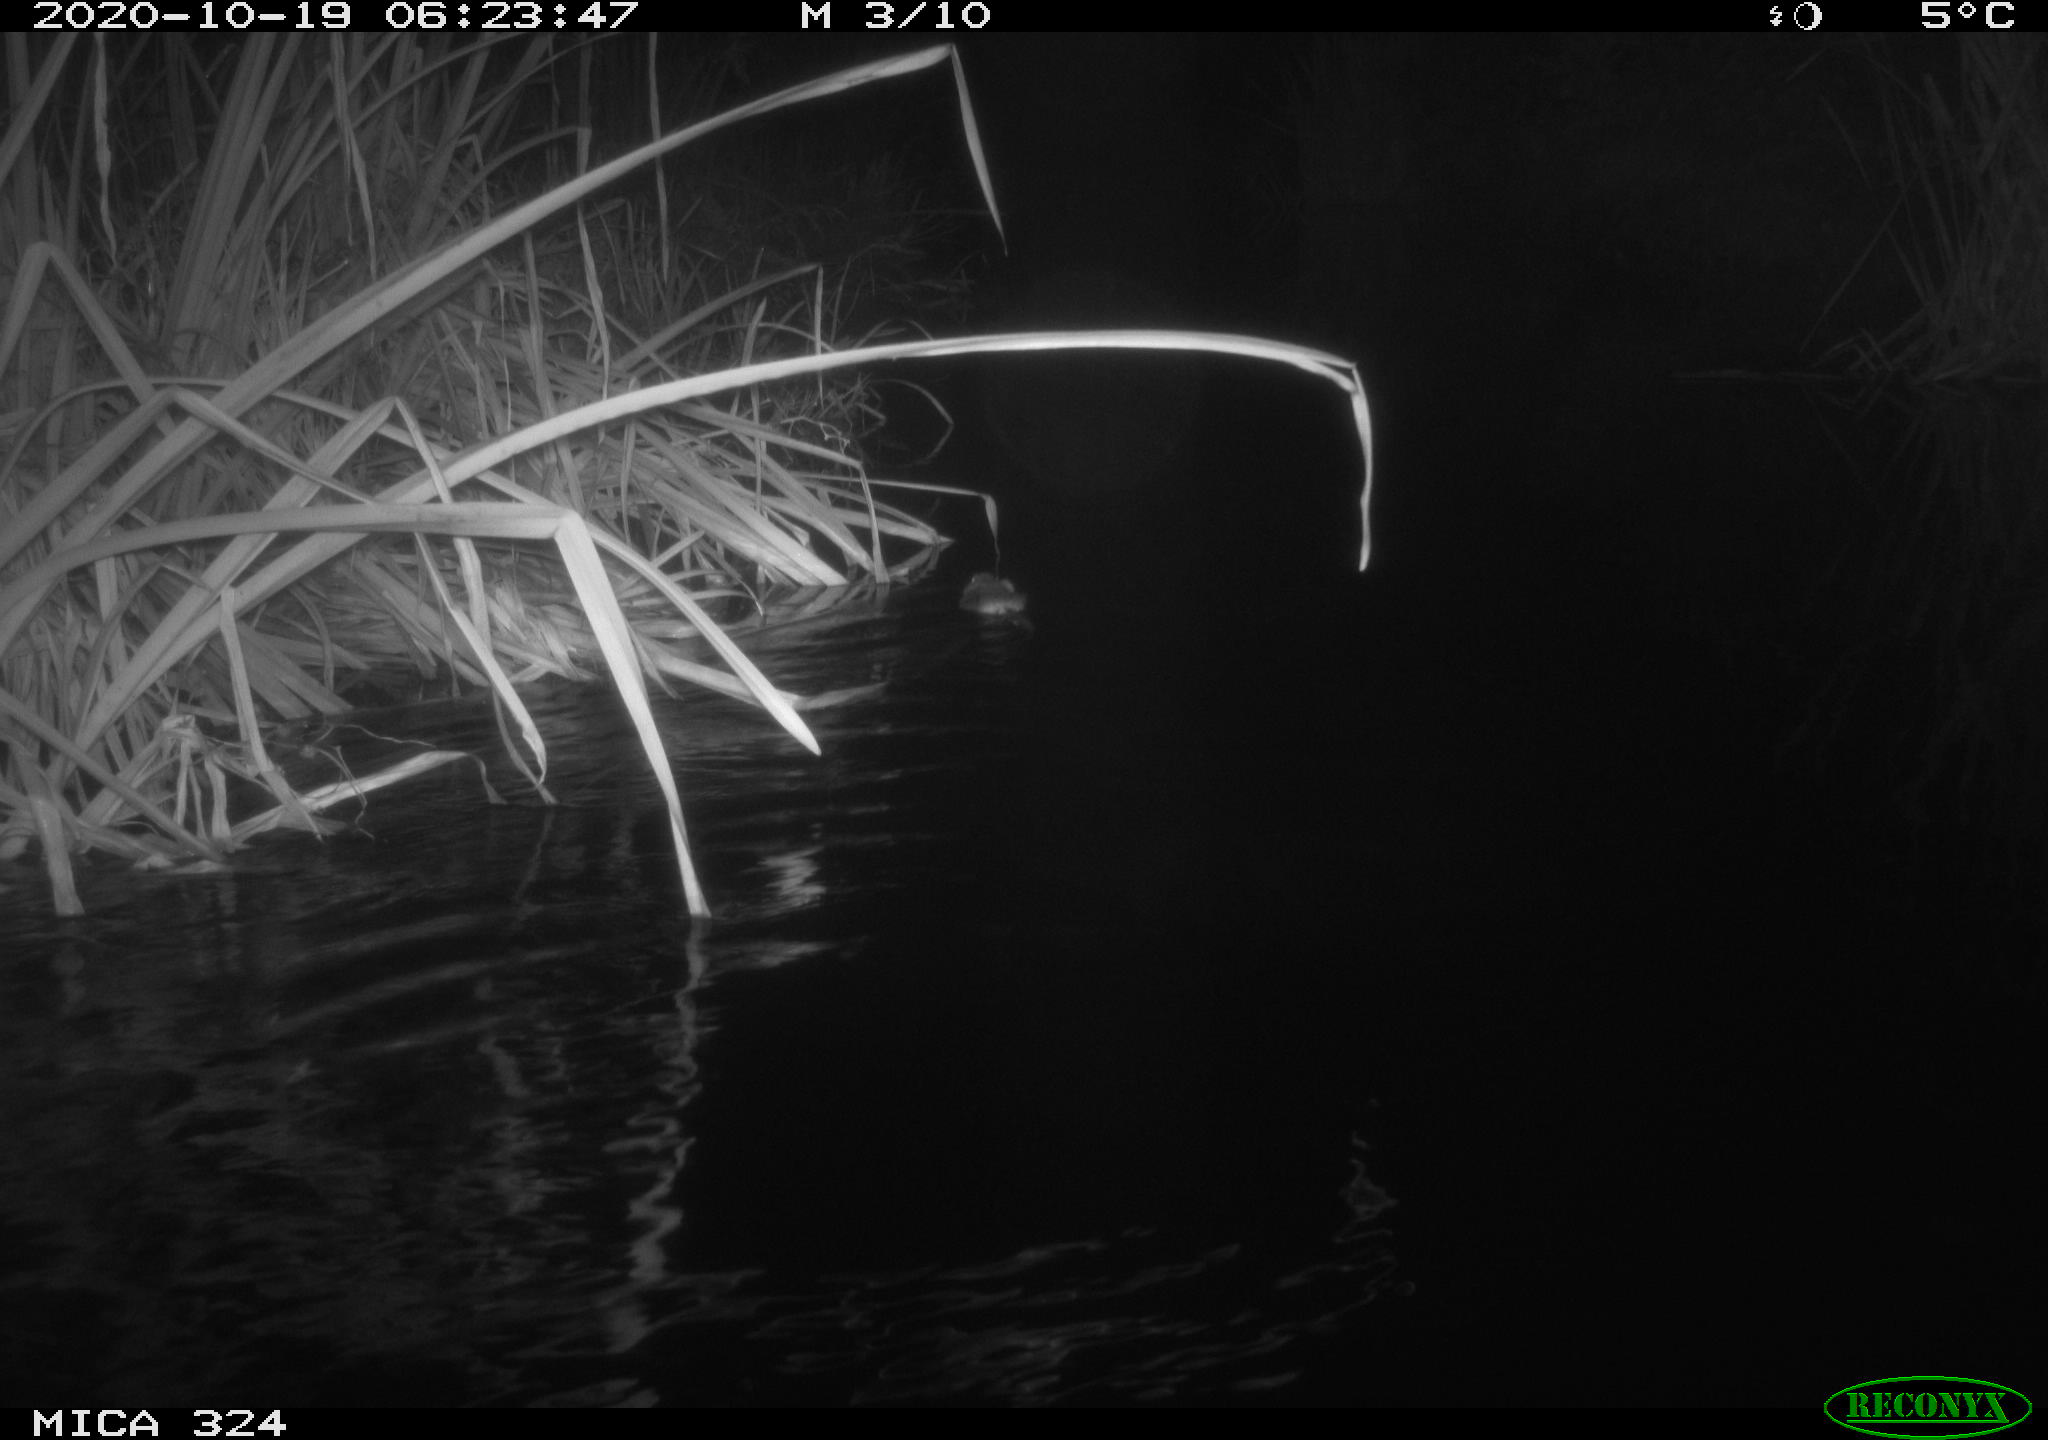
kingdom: Animalia
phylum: Chordata
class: Mammalia
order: Rodentia
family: Cricetidae
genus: Ondatra
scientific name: Ondatra zibethicus
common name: Muskrat
